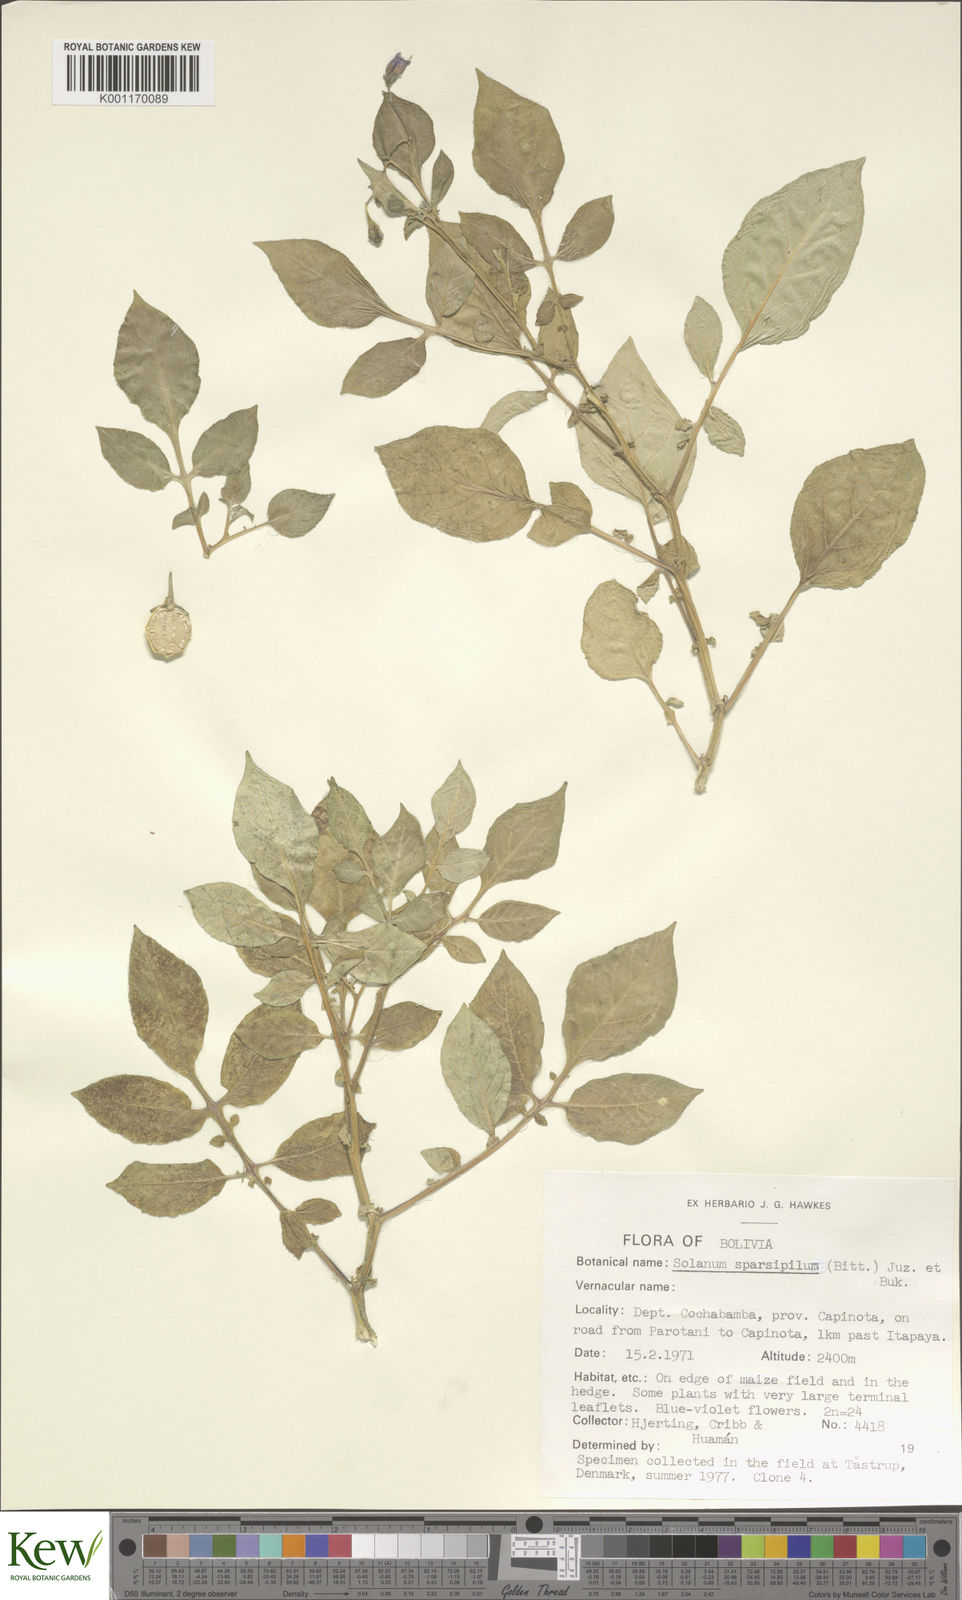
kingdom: Plantae
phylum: Tracheophyta
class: Magnoliopsida
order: Solanales
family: Solanaceae
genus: Solanum
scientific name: Solanum brevicaule
